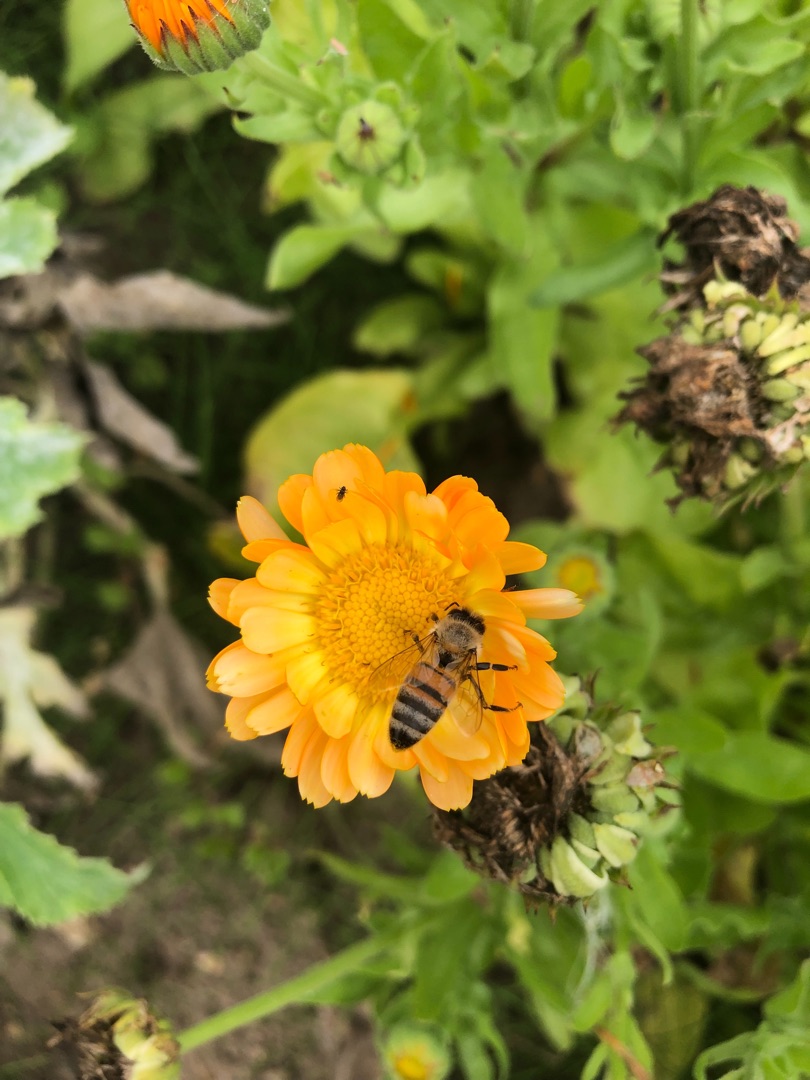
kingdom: Animalia
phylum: Arthropoda
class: Insecta
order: Hymenoptera
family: Apidae
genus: Apis
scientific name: Apis mellifera
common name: Honningbi
